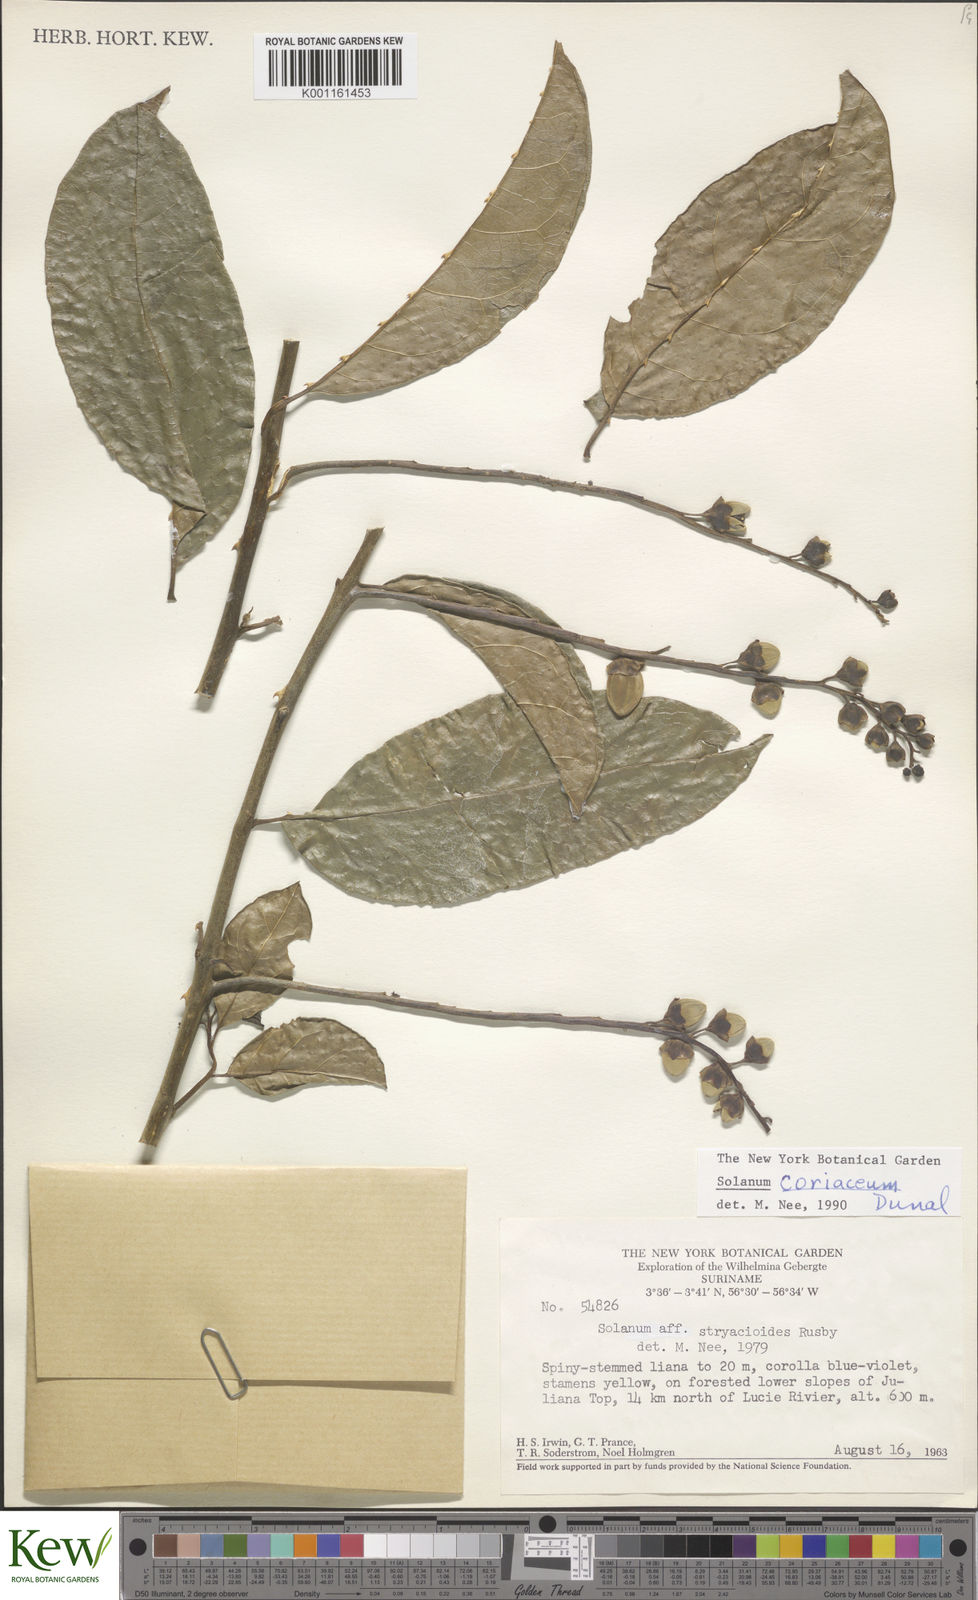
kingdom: Plantae
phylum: Tracheophyta
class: Magnoliopsida
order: Solanales
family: Solanaceae
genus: Solanum
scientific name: Solanum coriaceum
